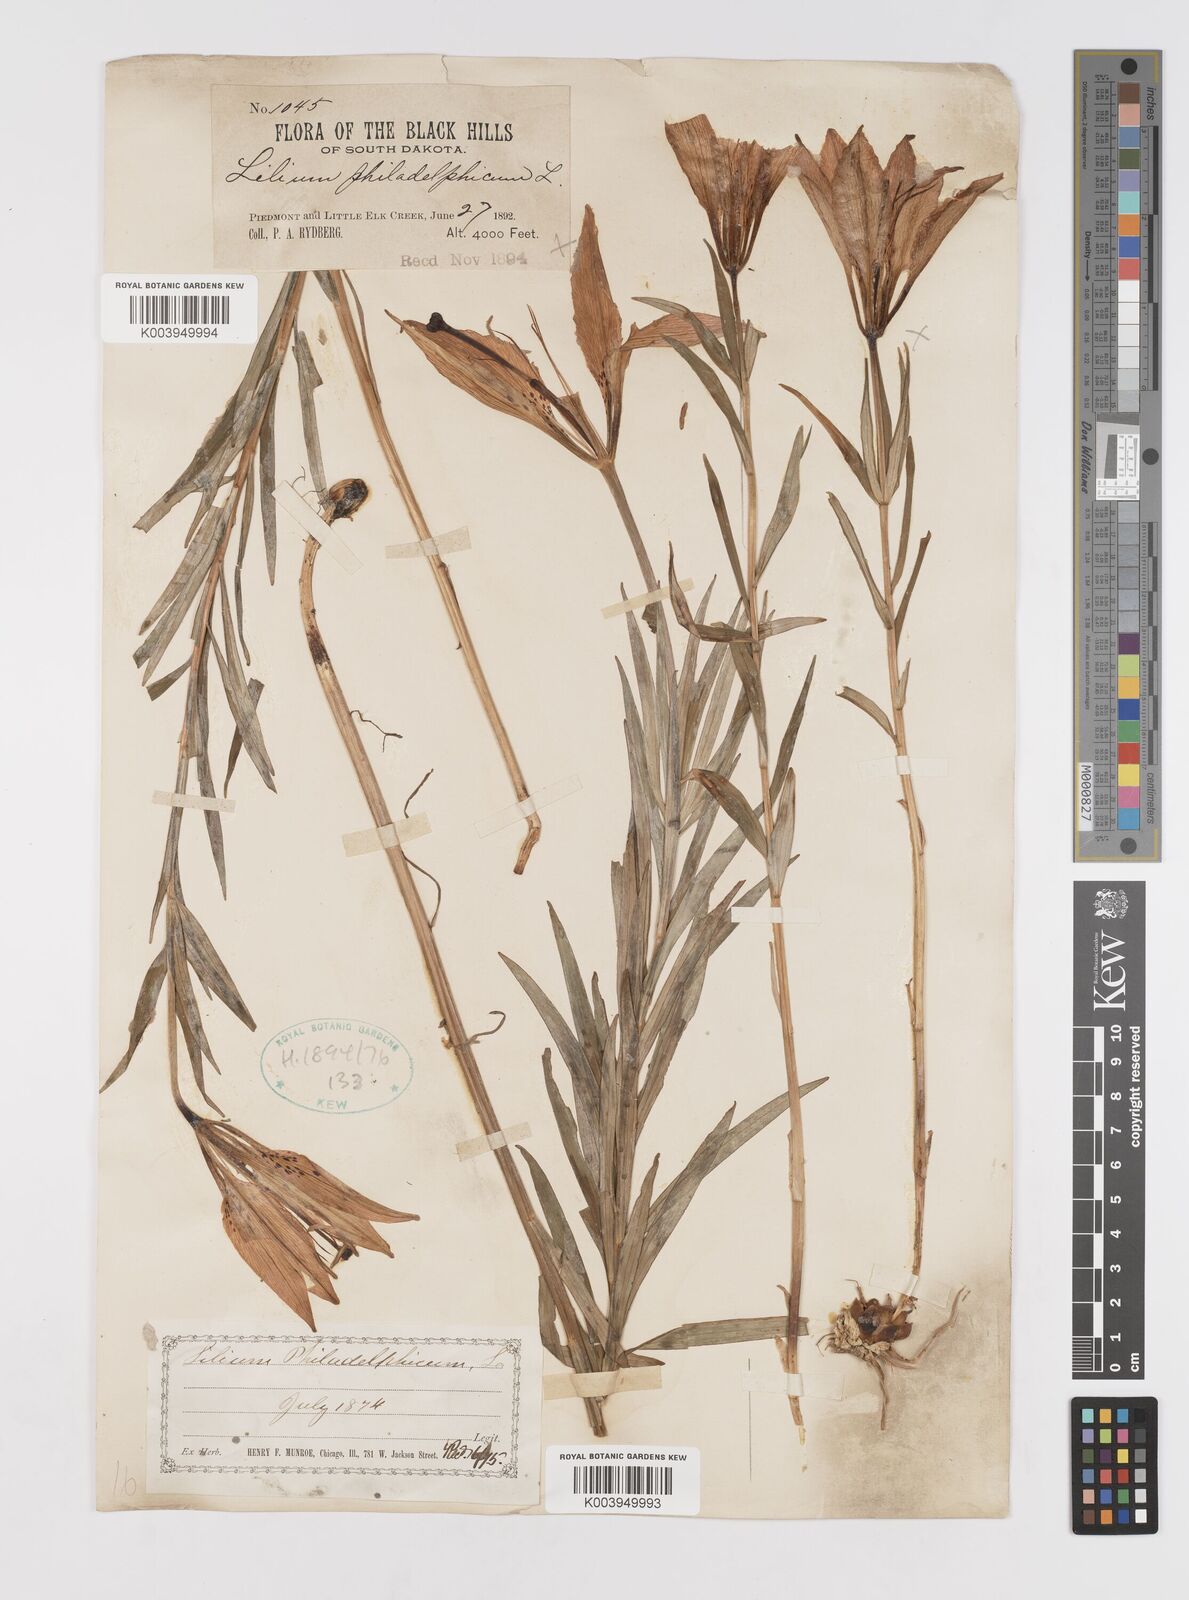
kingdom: Plantae
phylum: Tracheophyta
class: Liliopsida
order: Liliales
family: Liliaceae
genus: Lilium
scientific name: Lilium philadelphicum
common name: Red lily
